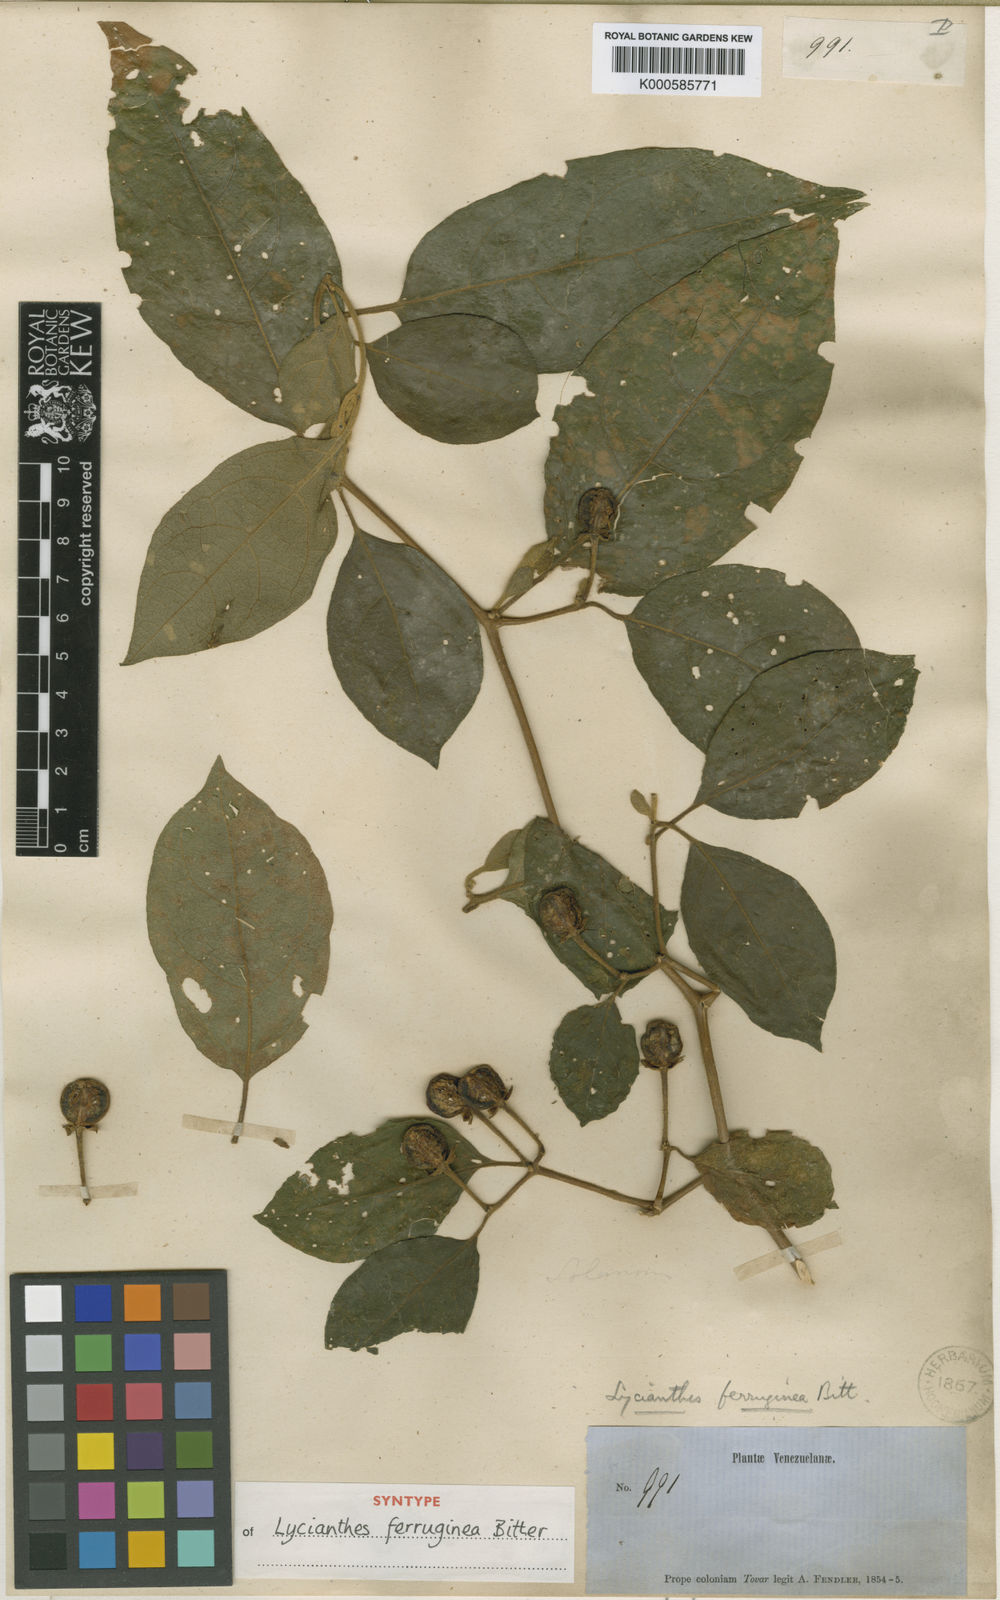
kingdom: Plantae
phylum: Tracheophyta
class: Magnoliopsida
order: Solanales
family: Solanaceae
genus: Lycianthes
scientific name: Lycianthes ferruginea
